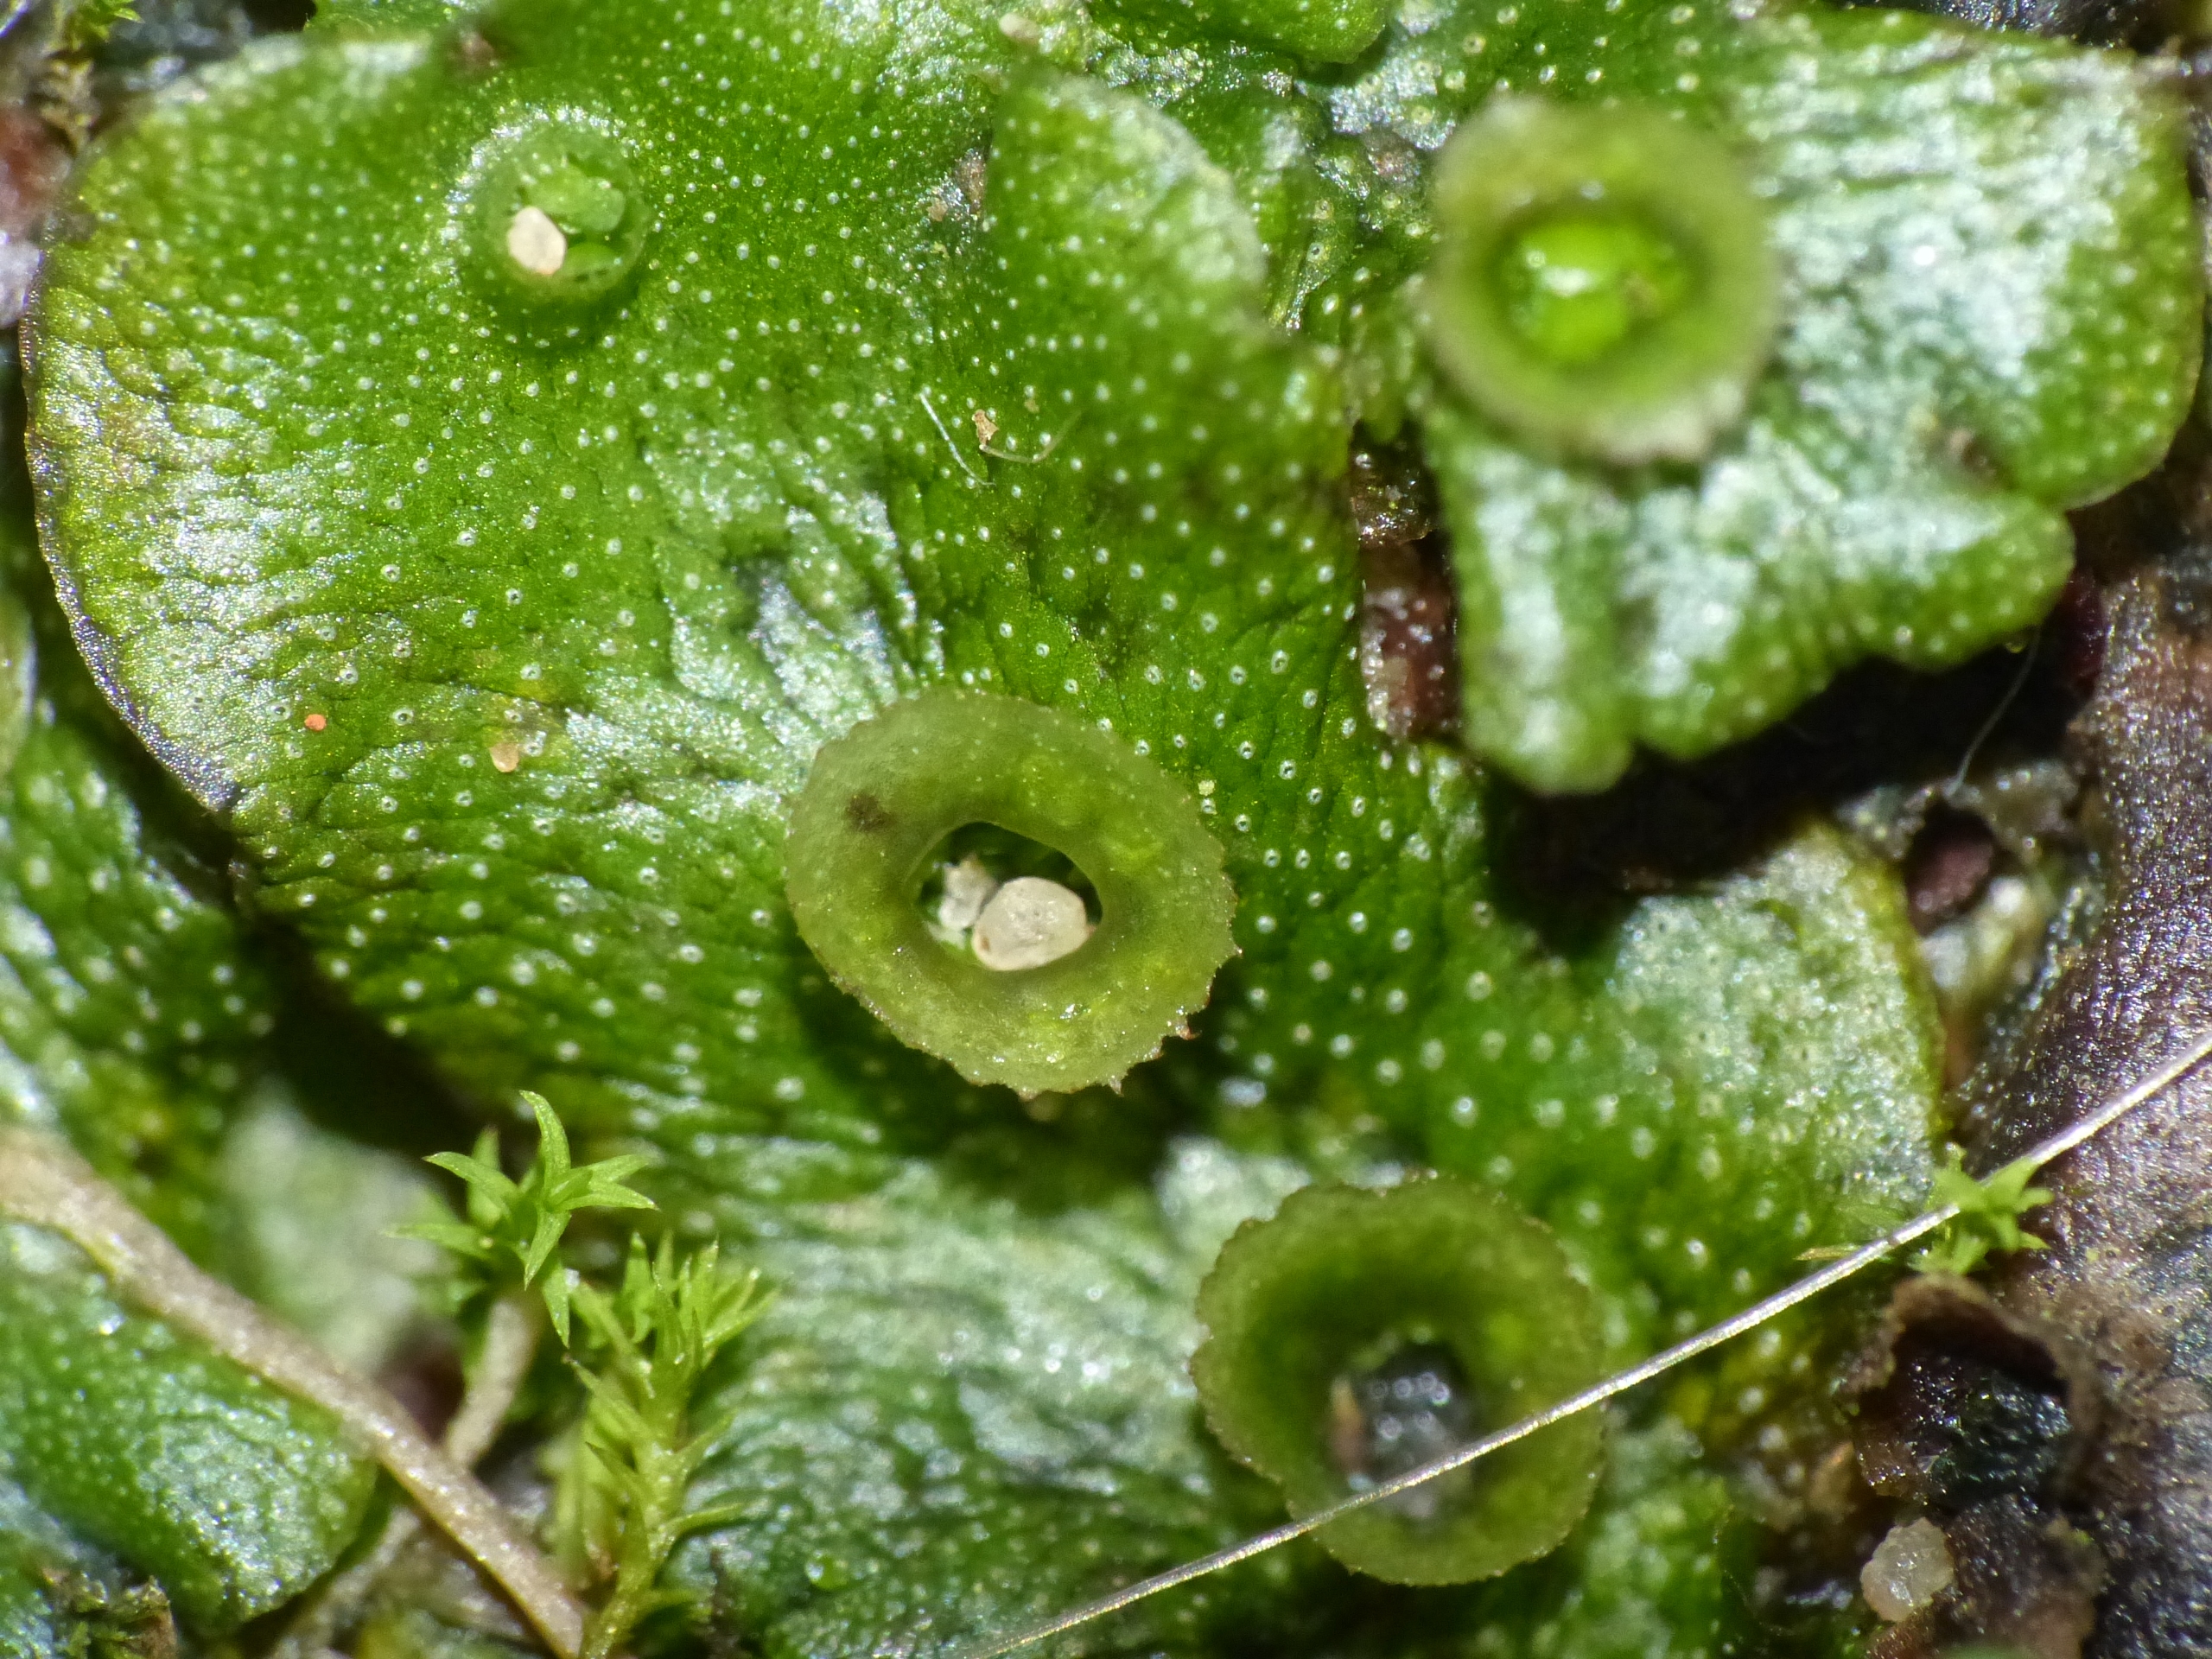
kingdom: Plantae
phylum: Marchantiophyta
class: Marchantiopsida
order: Marchantiales
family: Marchantiaceae
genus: Marchantia
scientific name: Marchantia polymorpha
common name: Almindelig lungemos (underart)
